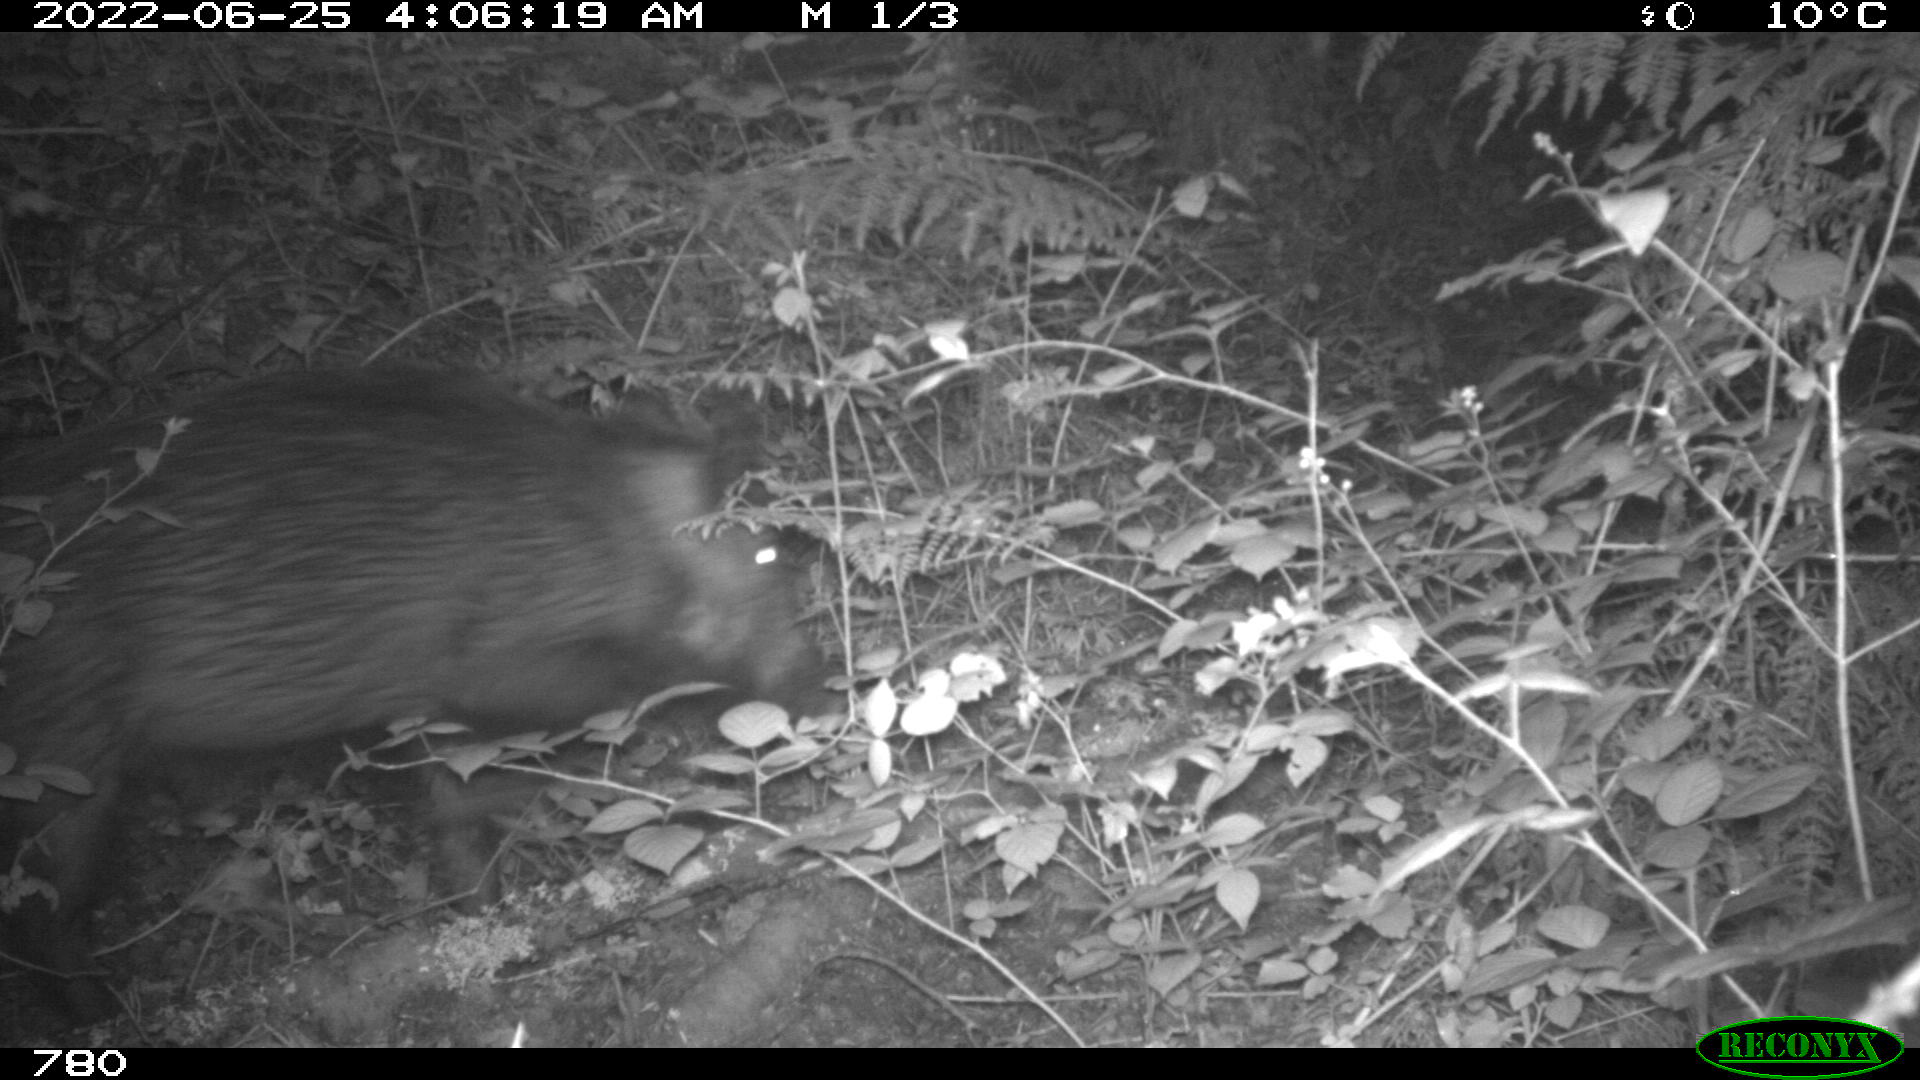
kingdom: Animalia
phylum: Chordata
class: Mammalia
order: Artiodactyla
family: Suidae
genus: Sus
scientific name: Sus scrofa
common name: Wild boar
